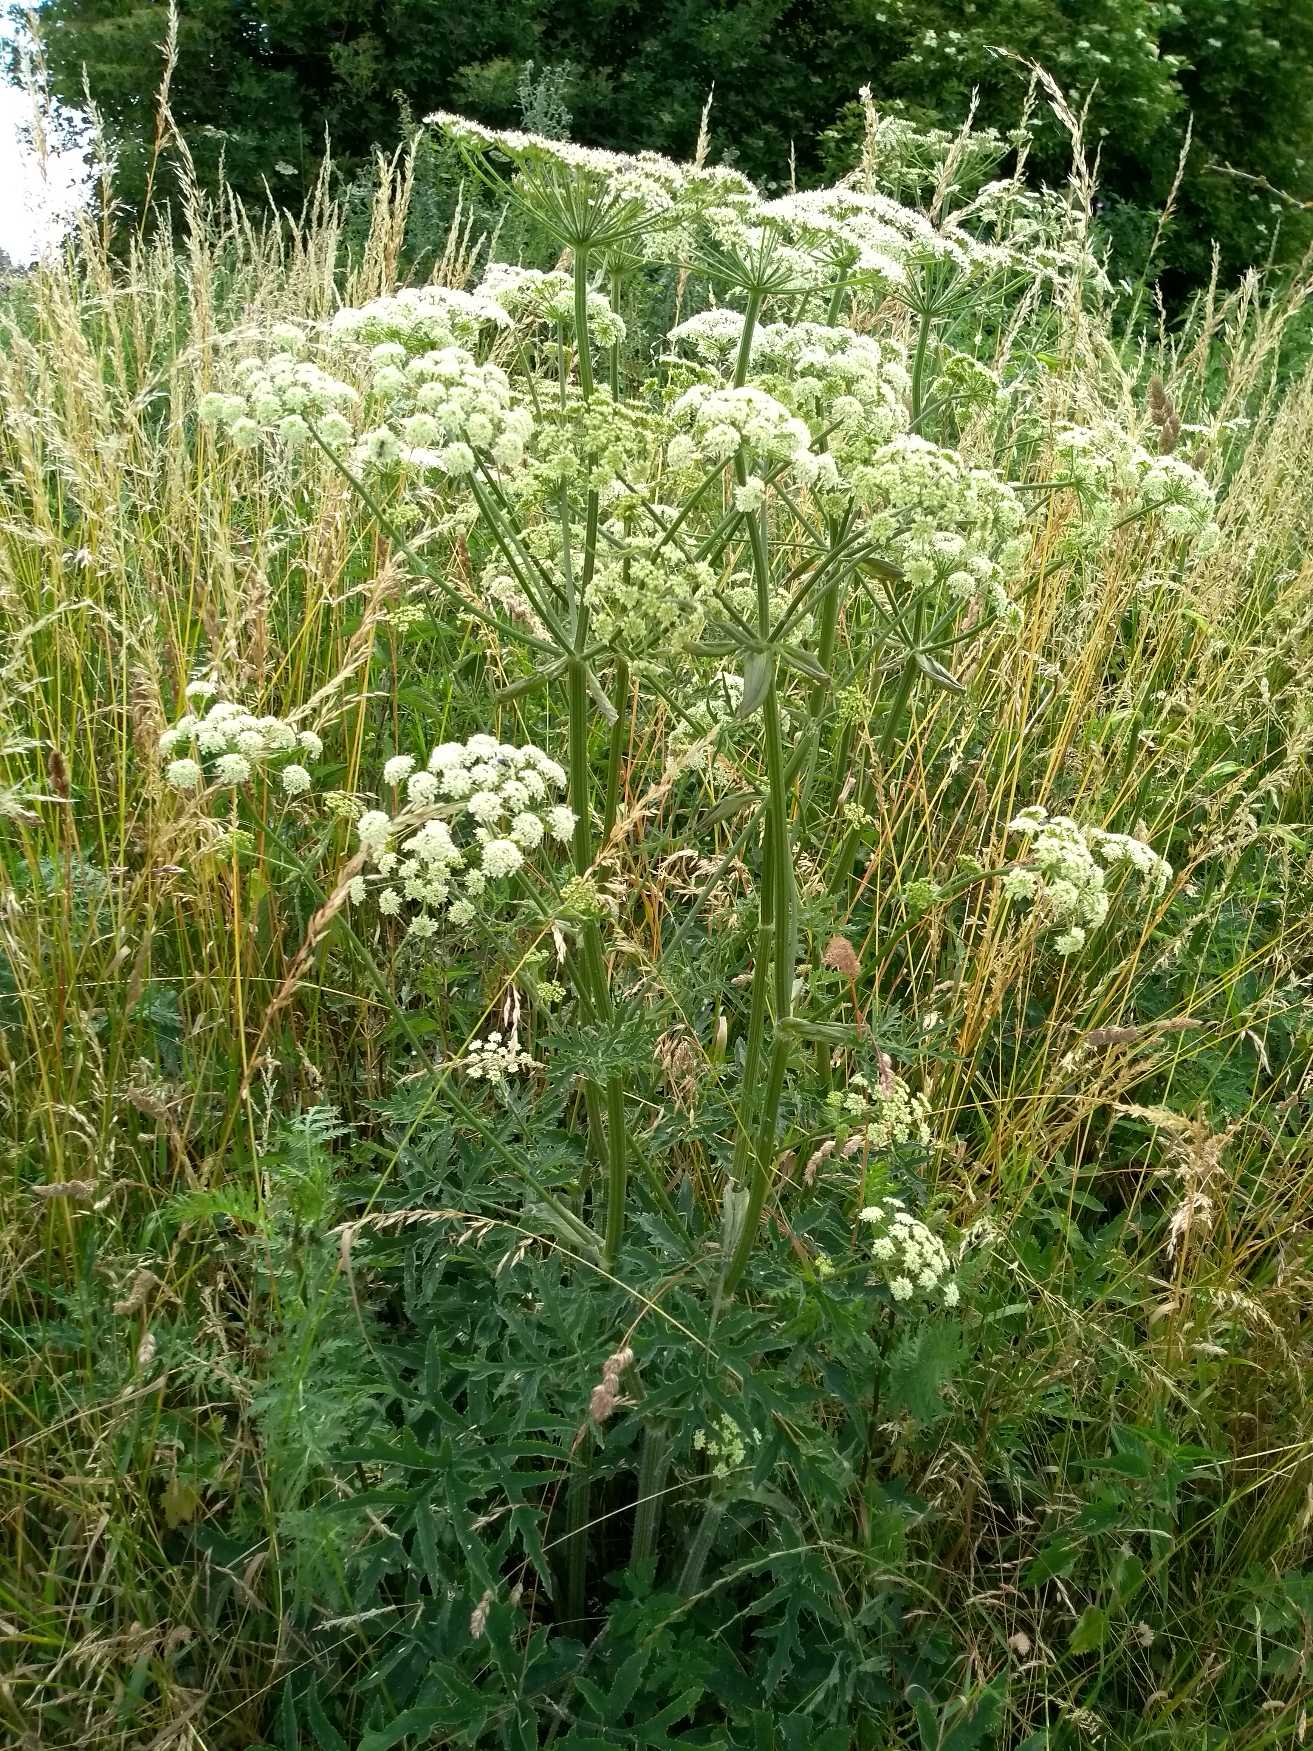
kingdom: Plantae
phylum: Tracheophyta
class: Magnoliopsida
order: Apiales
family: Apiaceae
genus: Heracleum
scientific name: Heracleum sphondylium
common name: Almindelig bjørneklo
